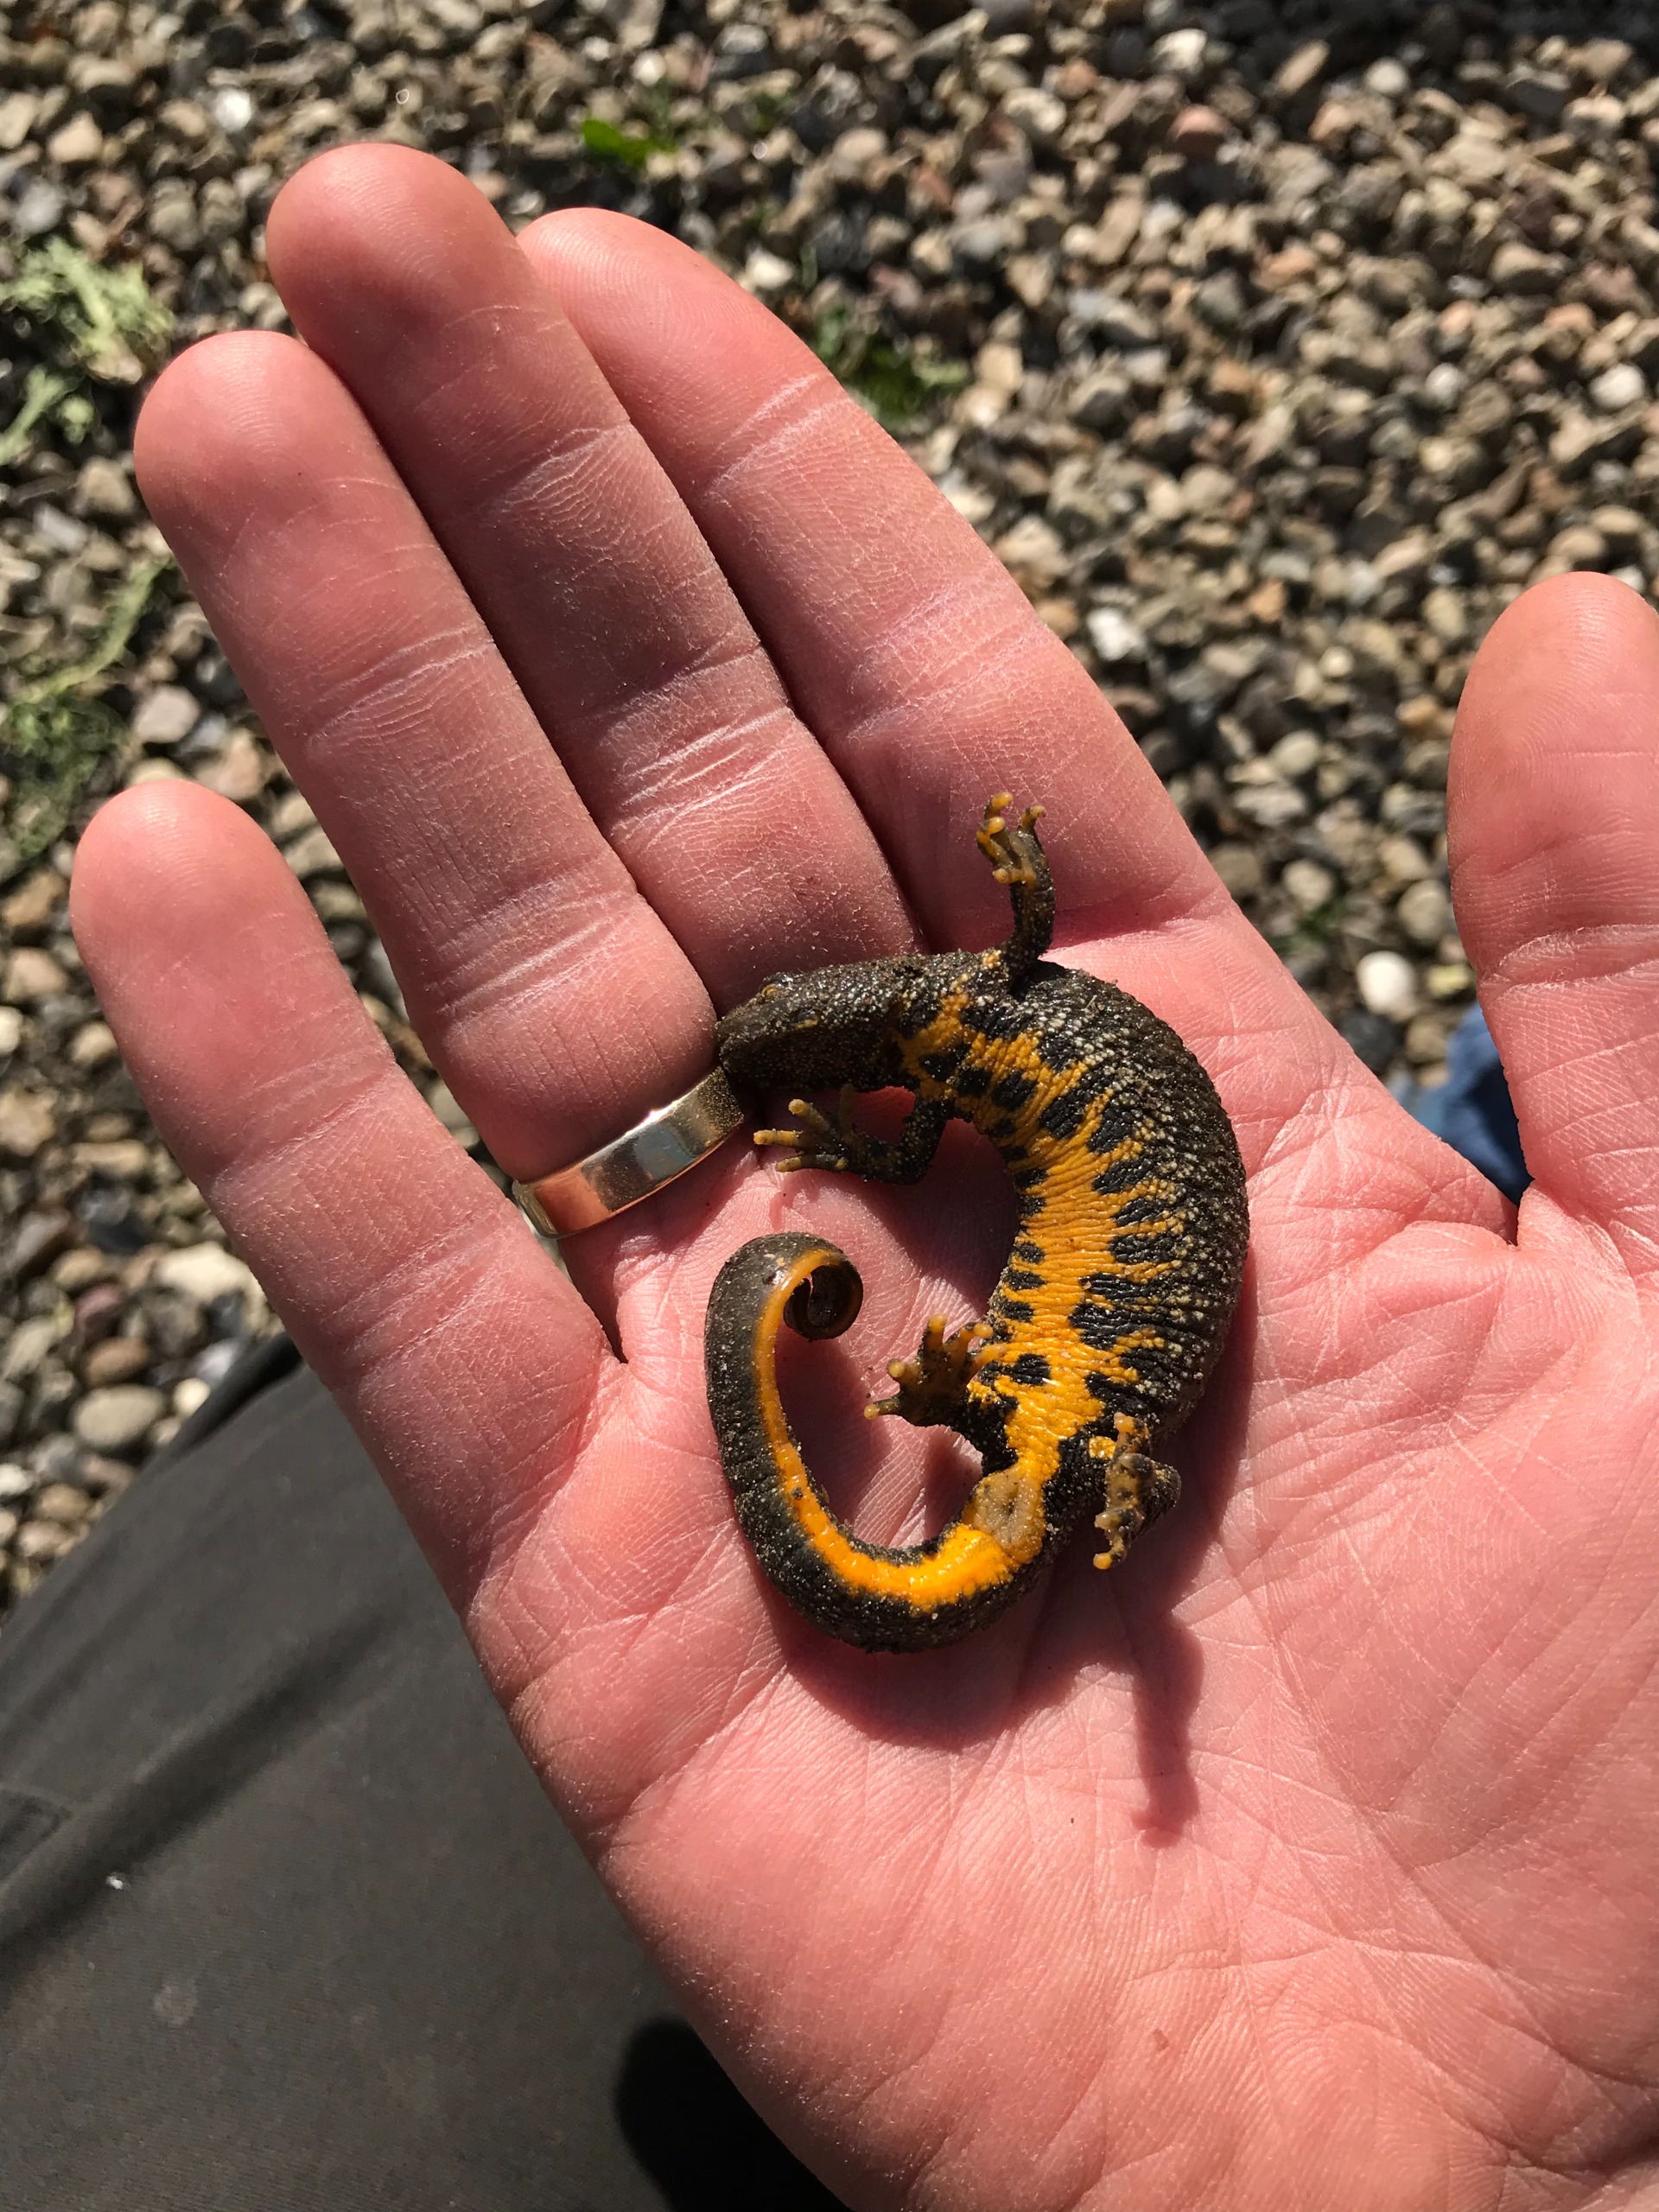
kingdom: Animalia
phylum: Chordata
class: Amphibia
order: Caudata
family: Salamandridae
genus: Triturus
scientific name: Triturus cristatus
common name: Stor vandsalamander
